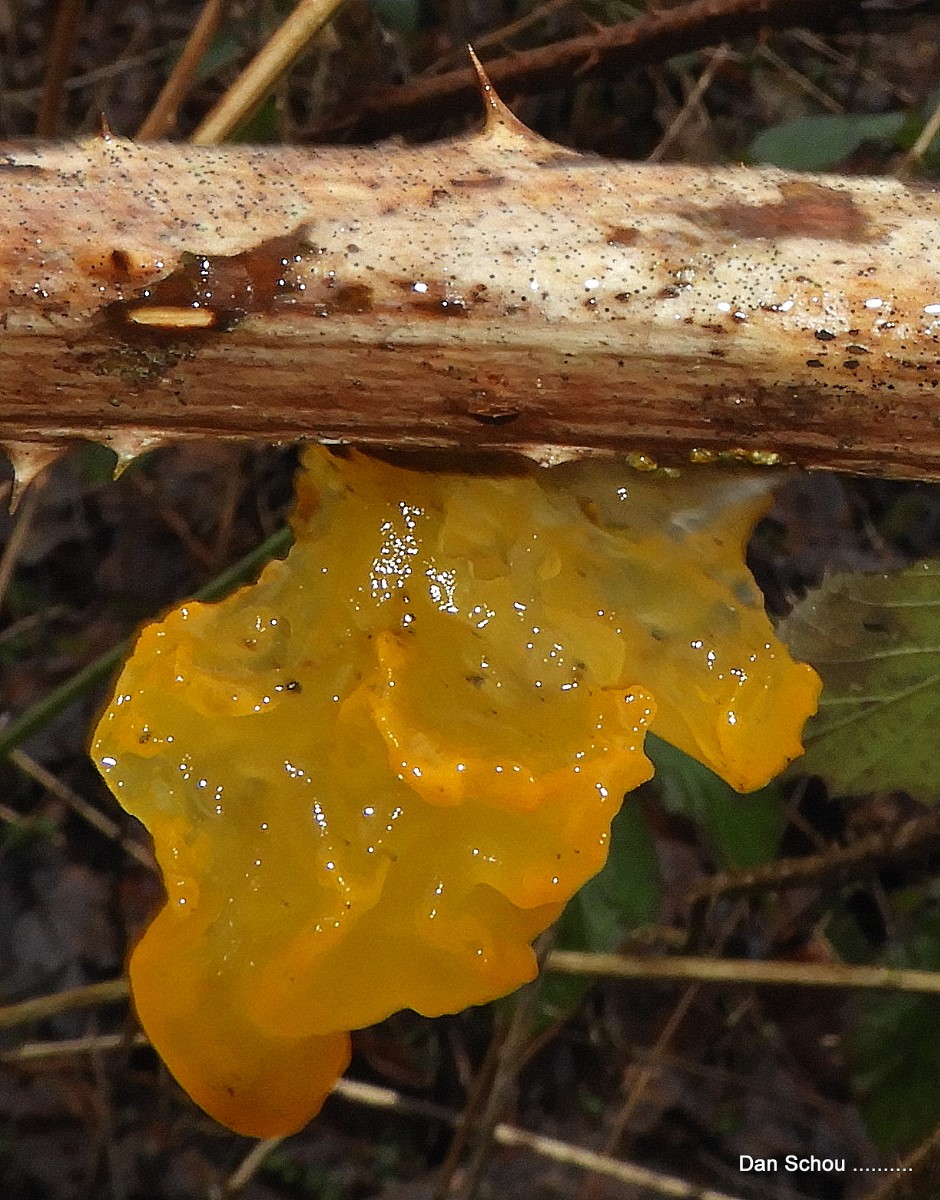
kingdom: Fungi
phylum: Basidiomycota
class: Tremellomycetes
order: Tremellales
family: Tremellaceae
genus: Tremella
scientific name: Tremella mesenterica
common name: gul bævresvamp
